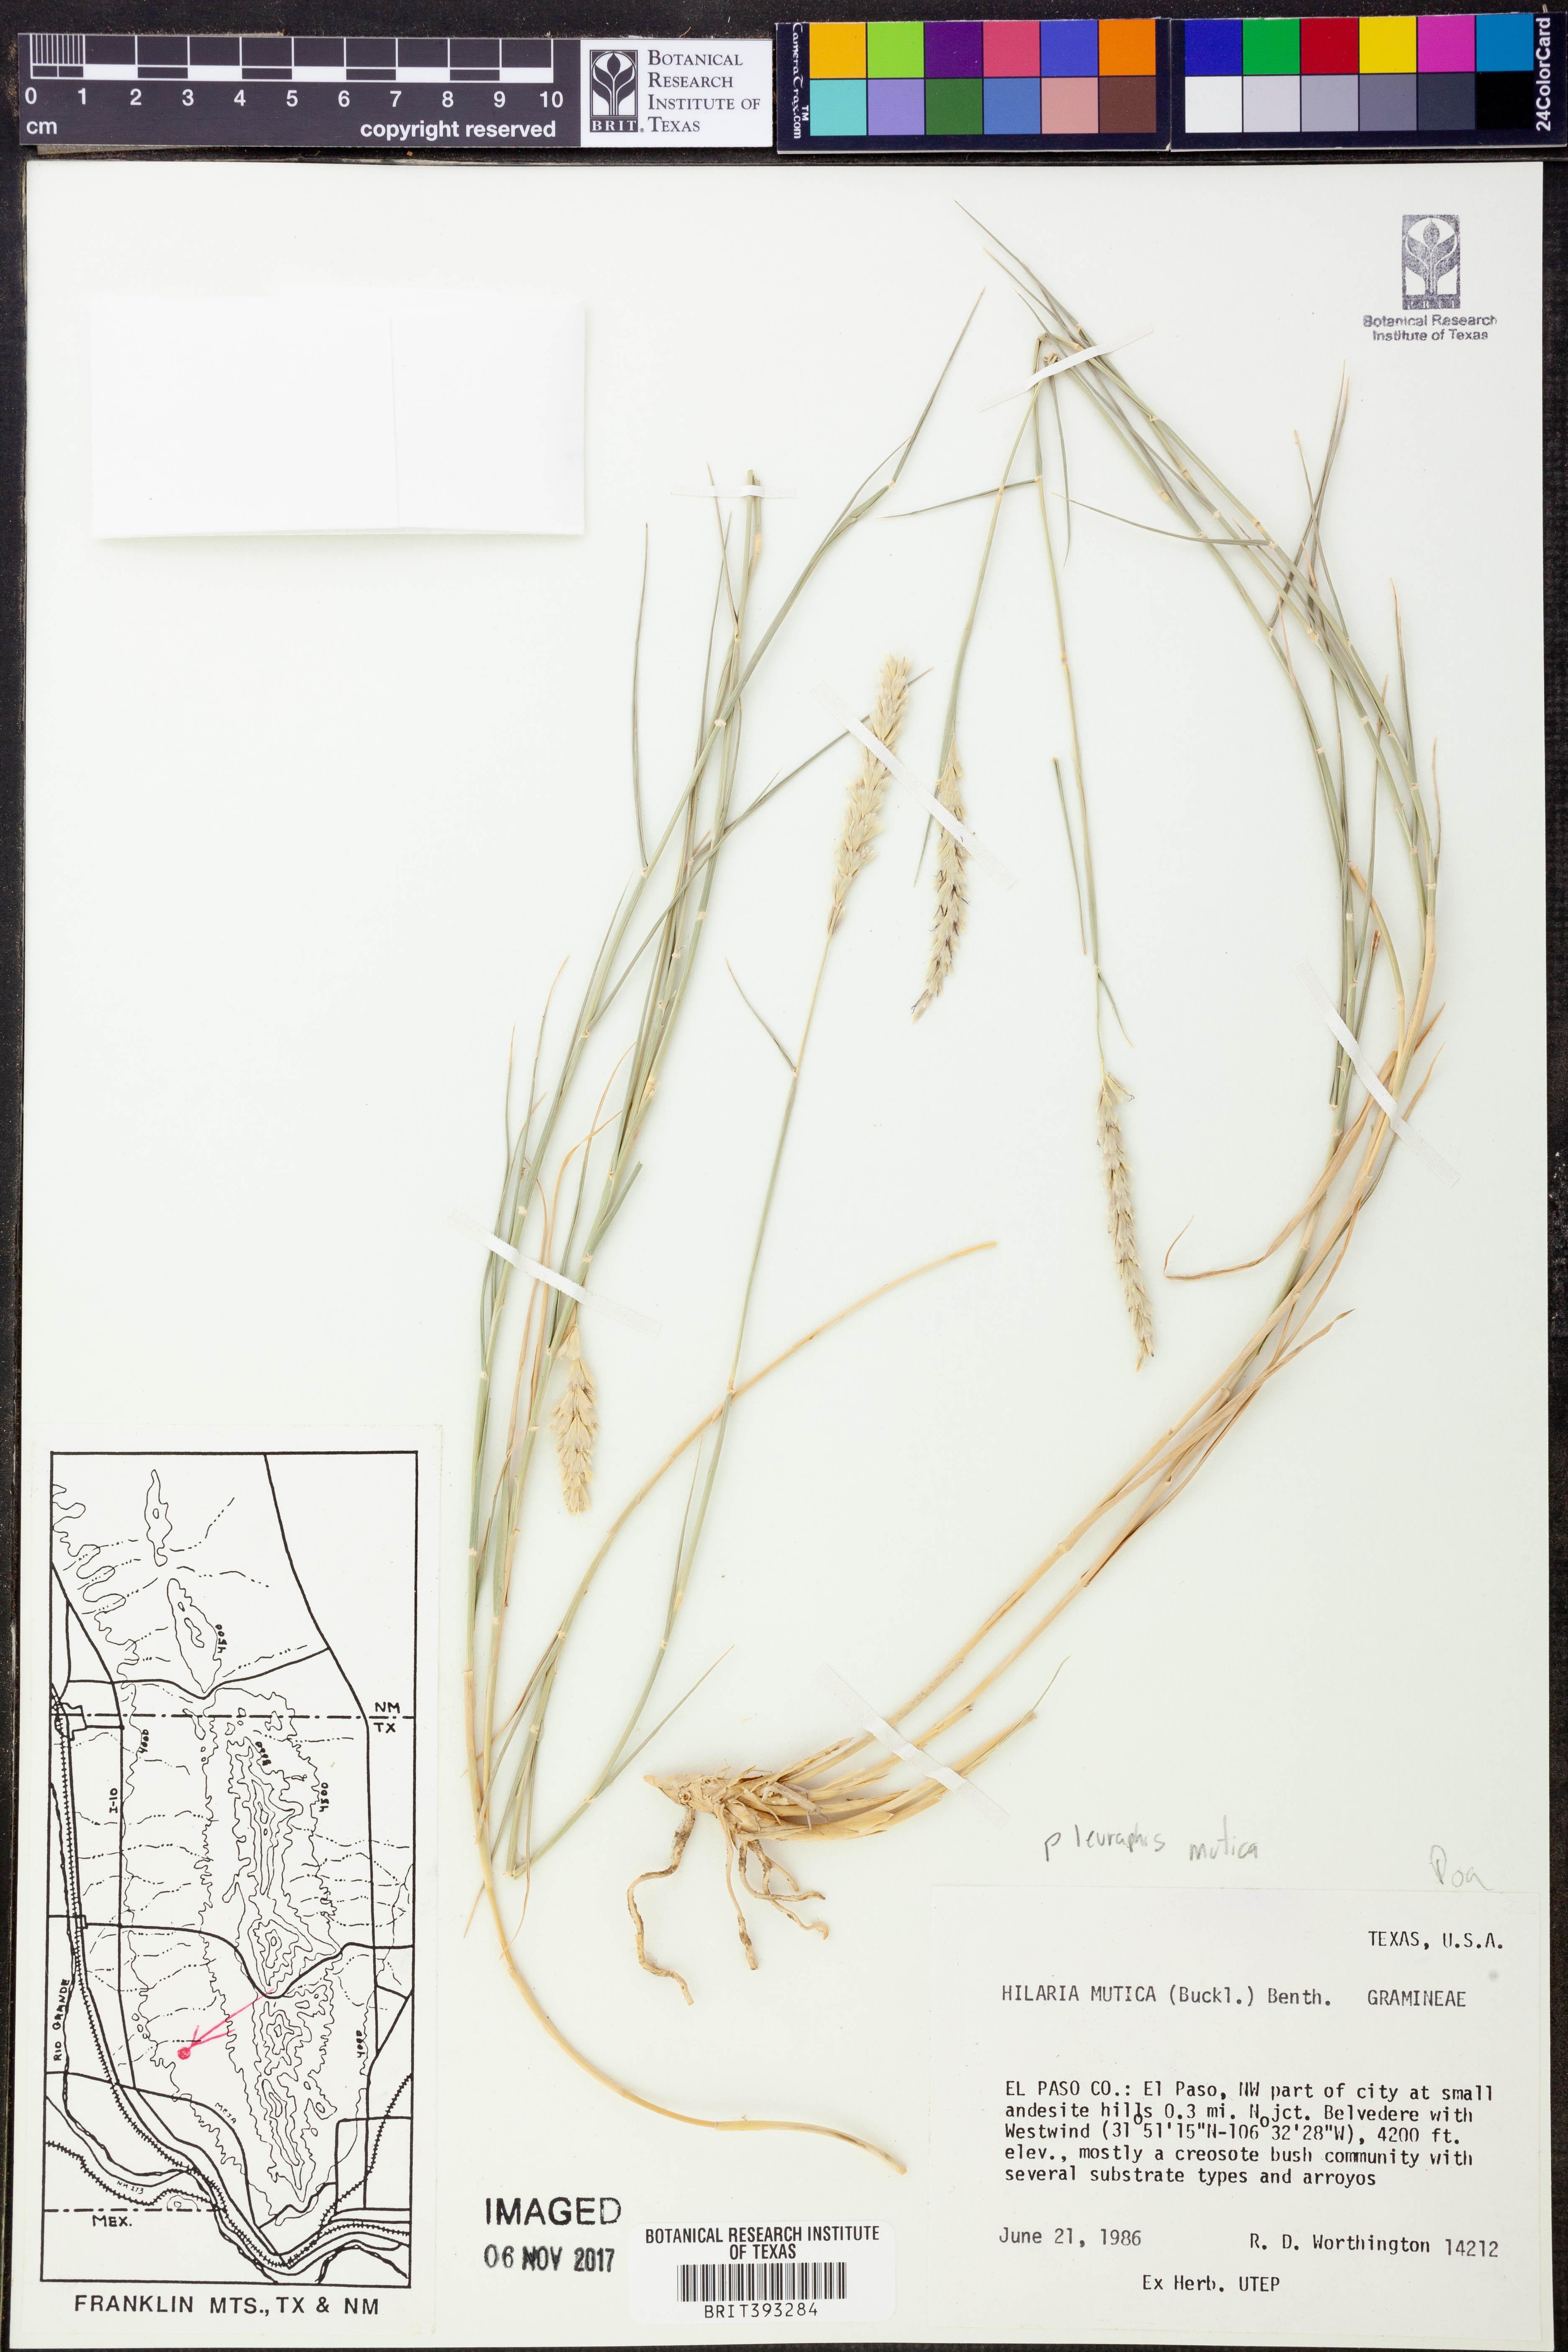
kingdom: Plantae
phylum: Tracheophyta
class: Liliopsida
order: Poales
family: Poaceae
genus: Hilaria
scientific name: Hilaria mutica
